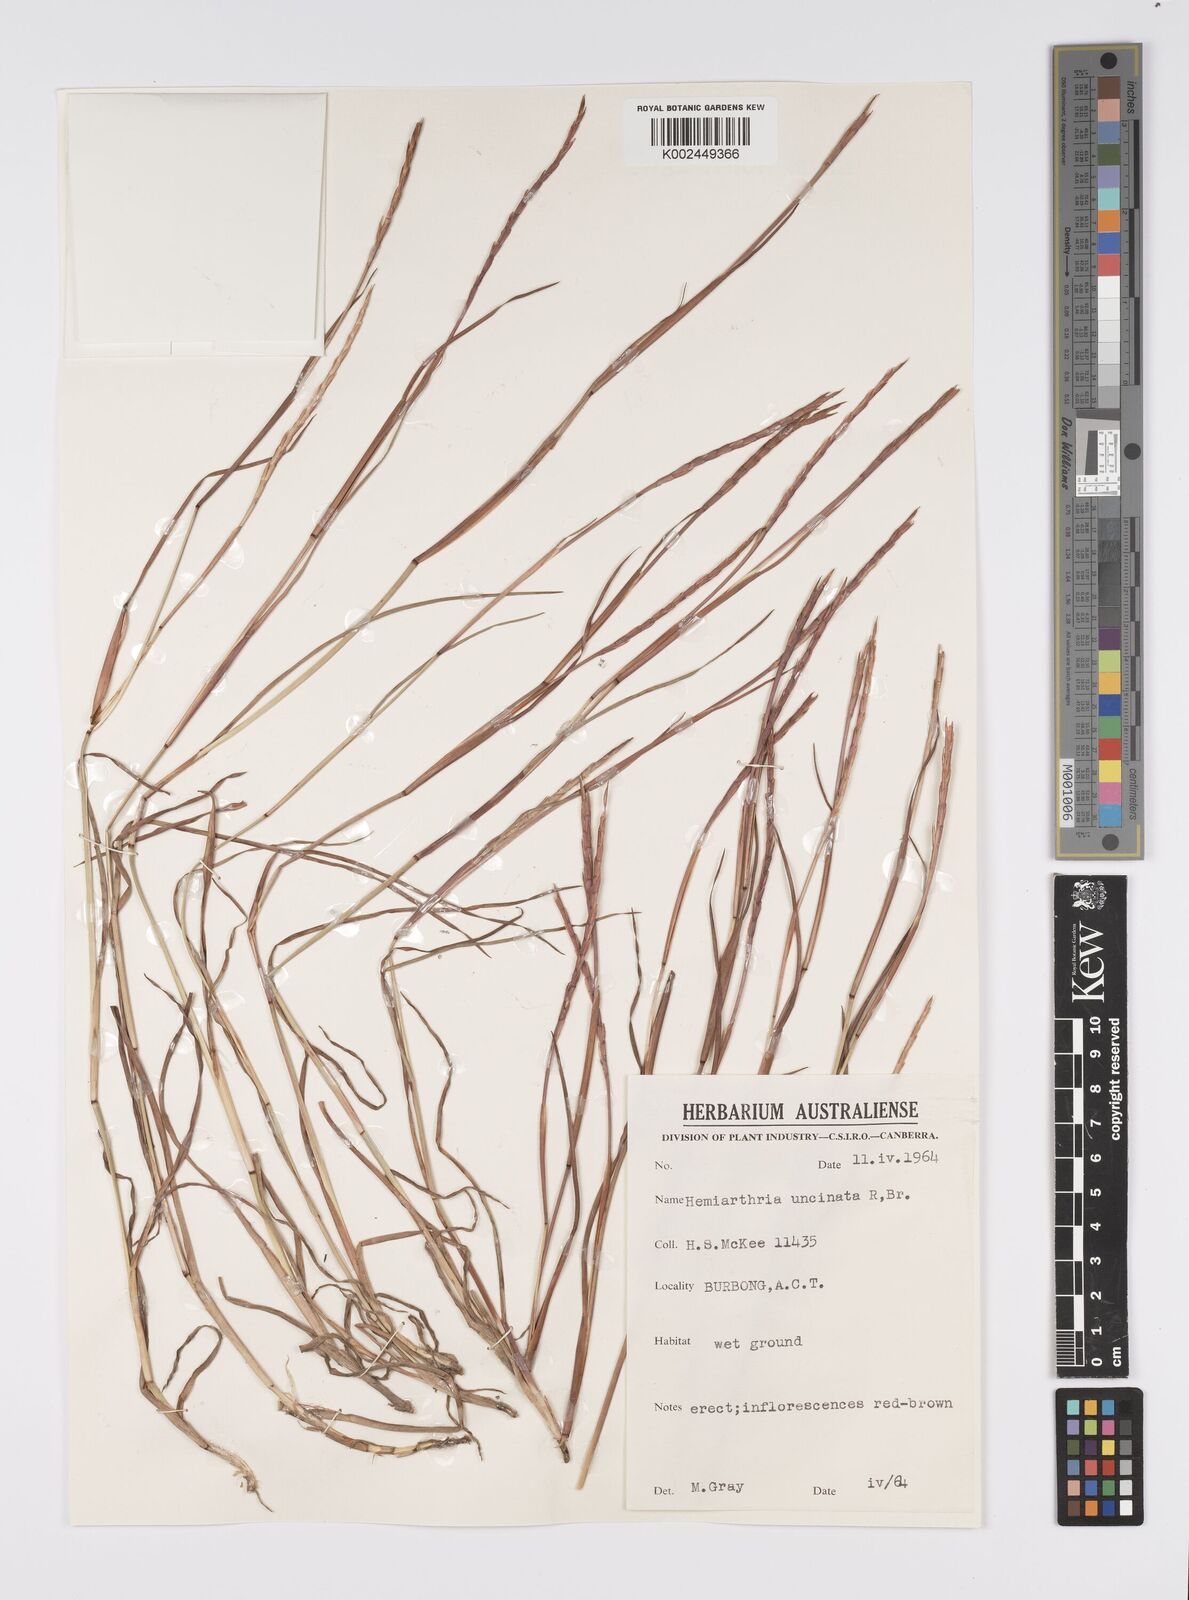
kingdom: Plantae
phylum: Tracheophyta
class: Liliopsida
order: Poales
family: Poaceae
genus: Hemarthria
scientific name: Hemarthria uncinata
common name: Matgrass
